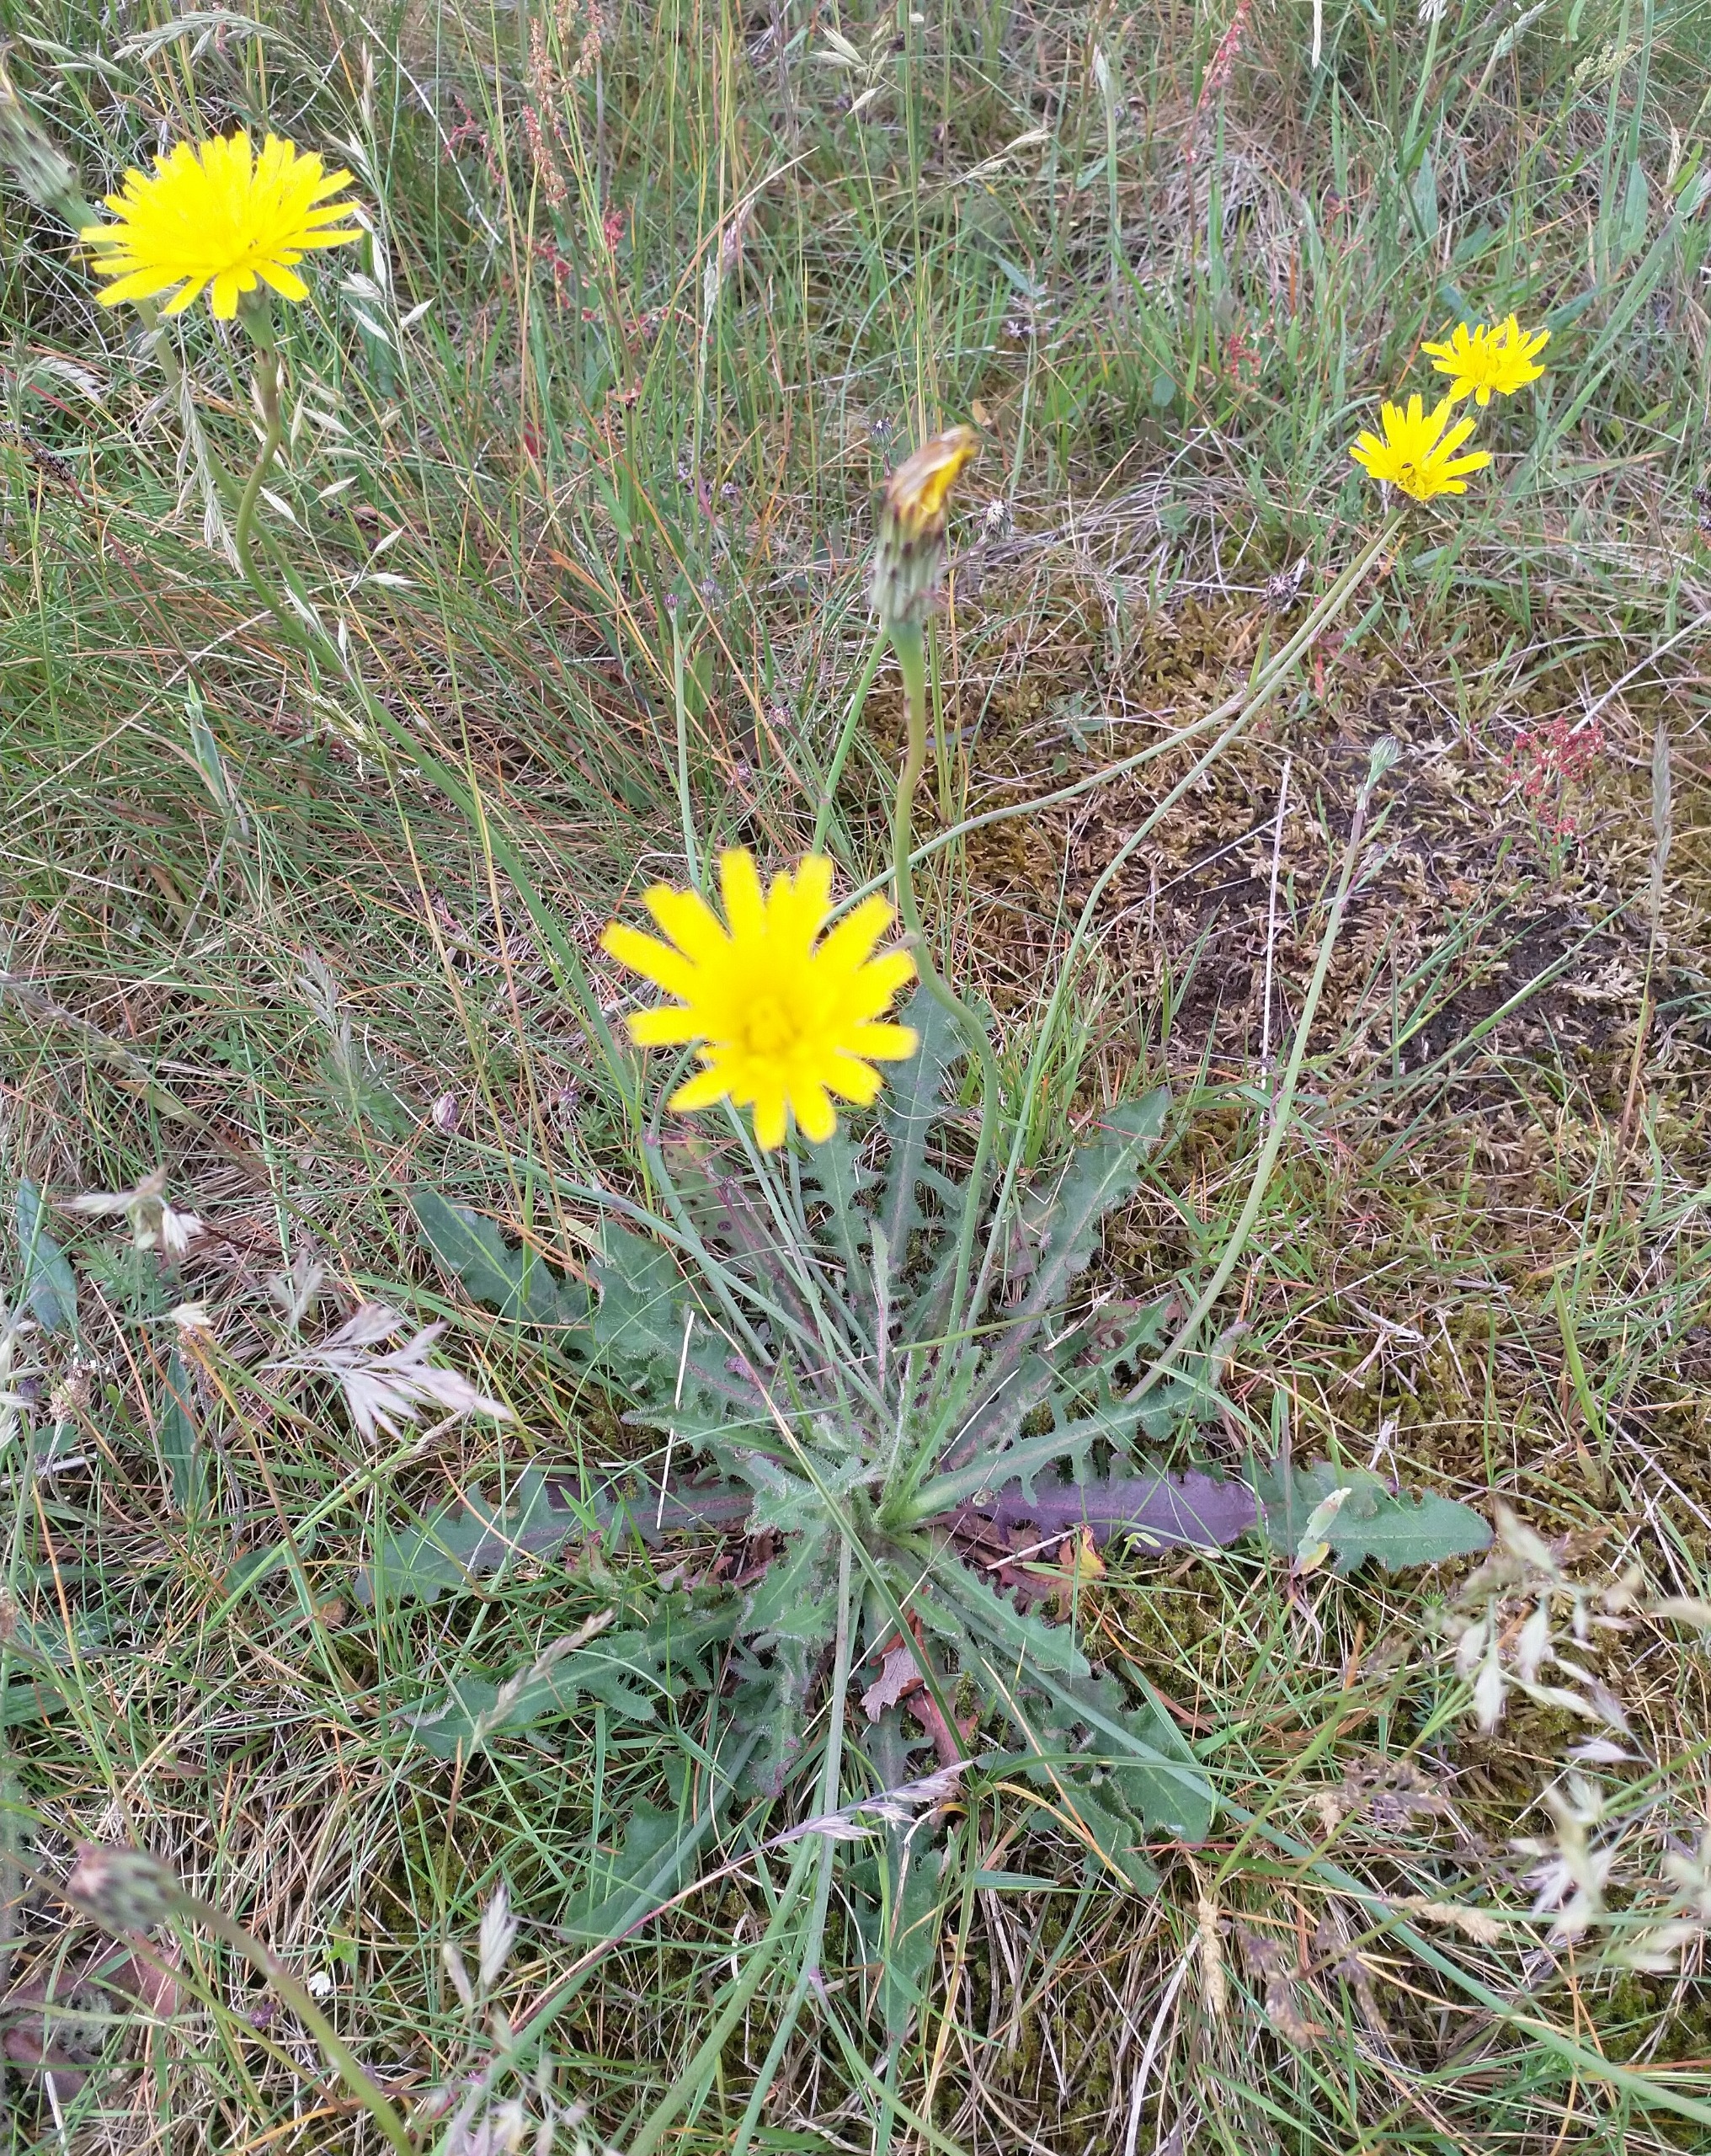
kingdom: Plantae
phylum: Tracheophyta
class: Magnoliopsida
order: Asterales
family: Asteraceae
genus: Hypochaeris
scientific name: Hypochaeris radicata
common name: Almindelig kongepen
